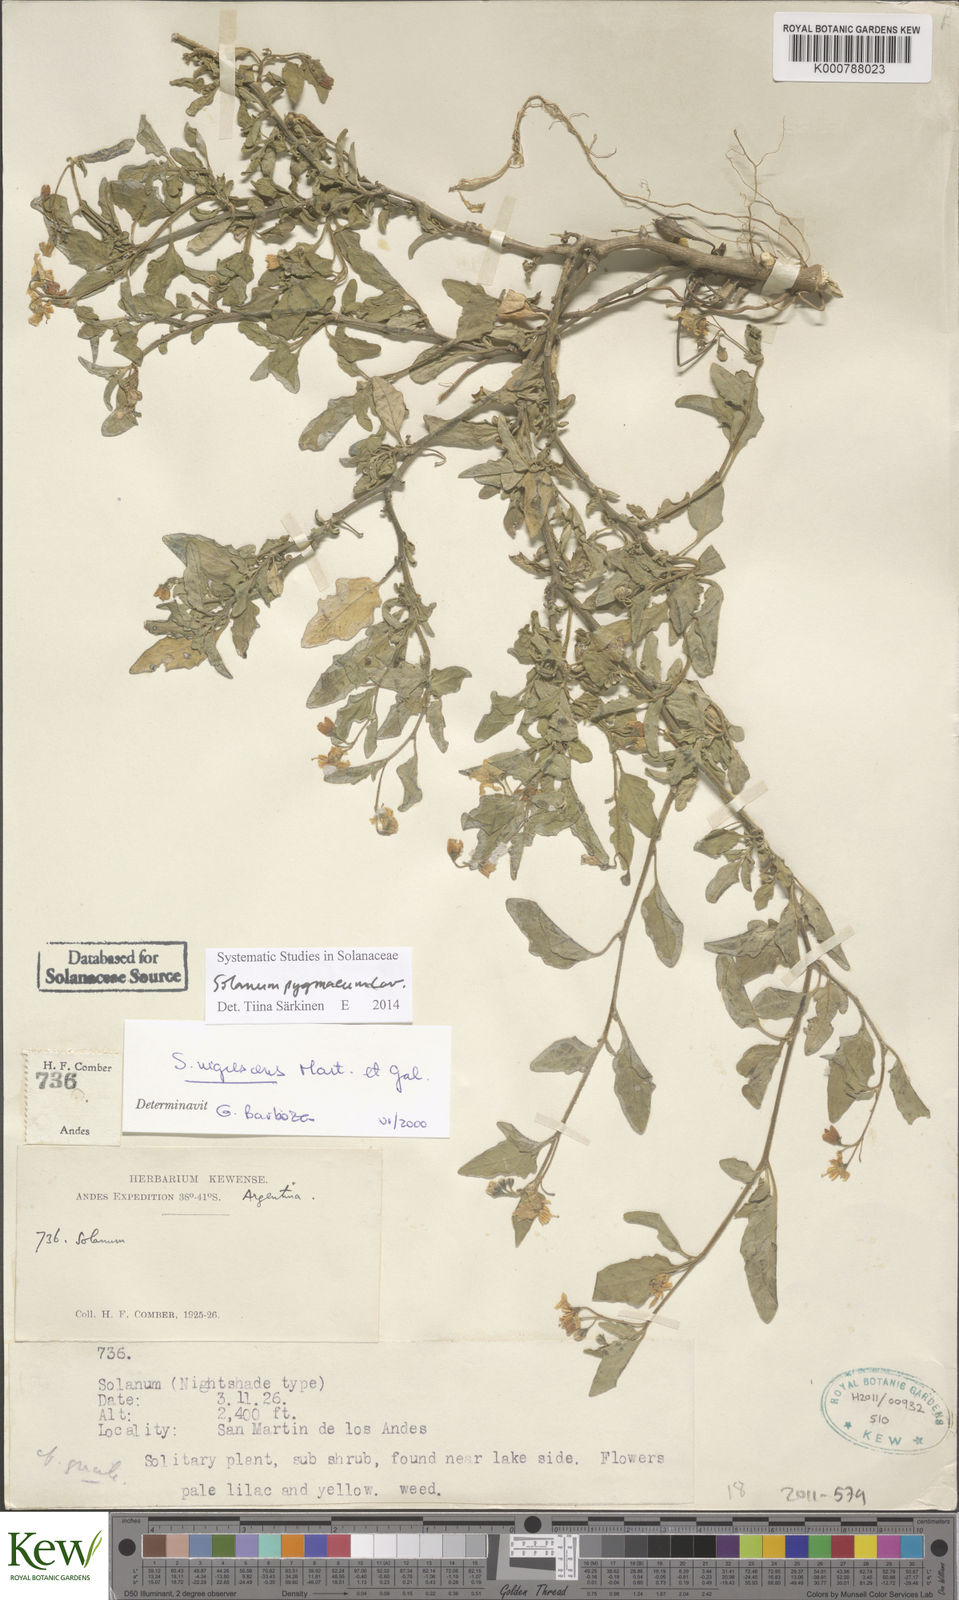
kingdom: Plantae
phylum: Tracheophyta
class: Magnoliopsida
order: Solanales
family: Solanaceae
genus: Solanum
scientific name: Solanum pygmaeum
